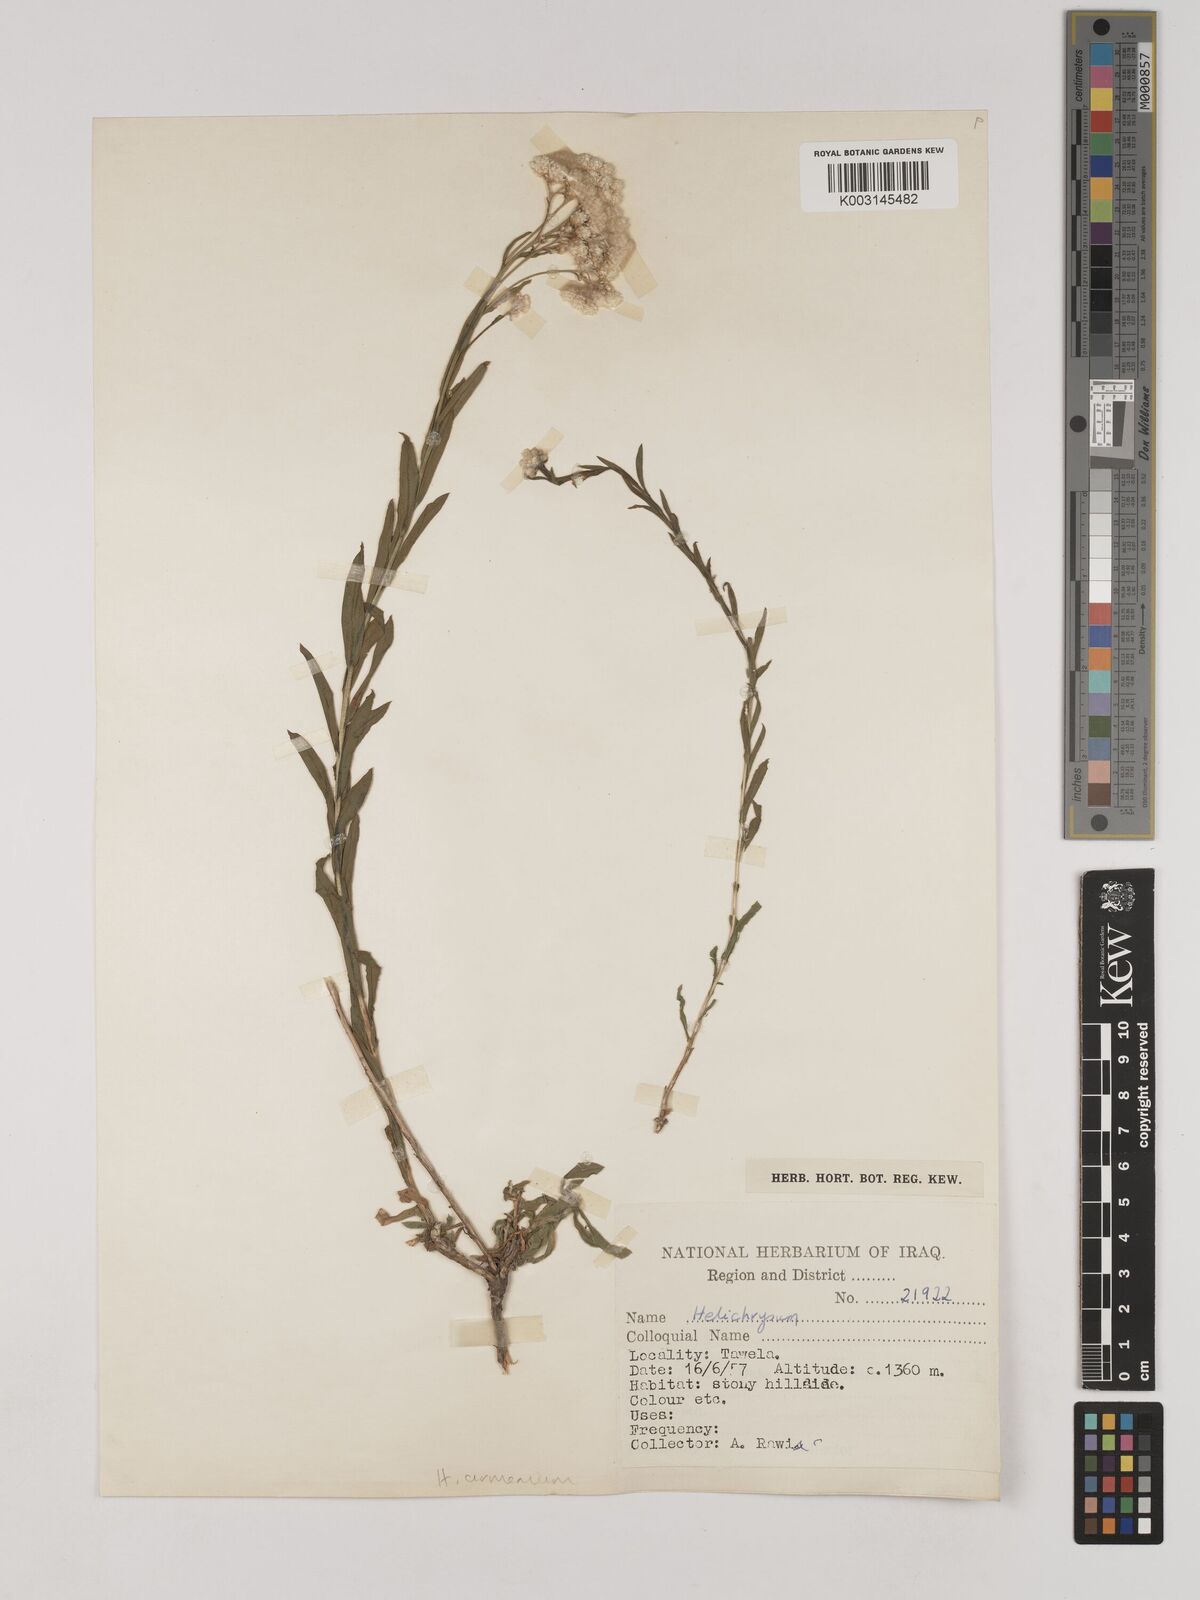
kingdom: Plantae
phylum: Tracheophyta
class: Magnoliopsida
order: Asterales
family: Asteraceae
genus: Helichrysum
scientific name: Helichrysum armenium
